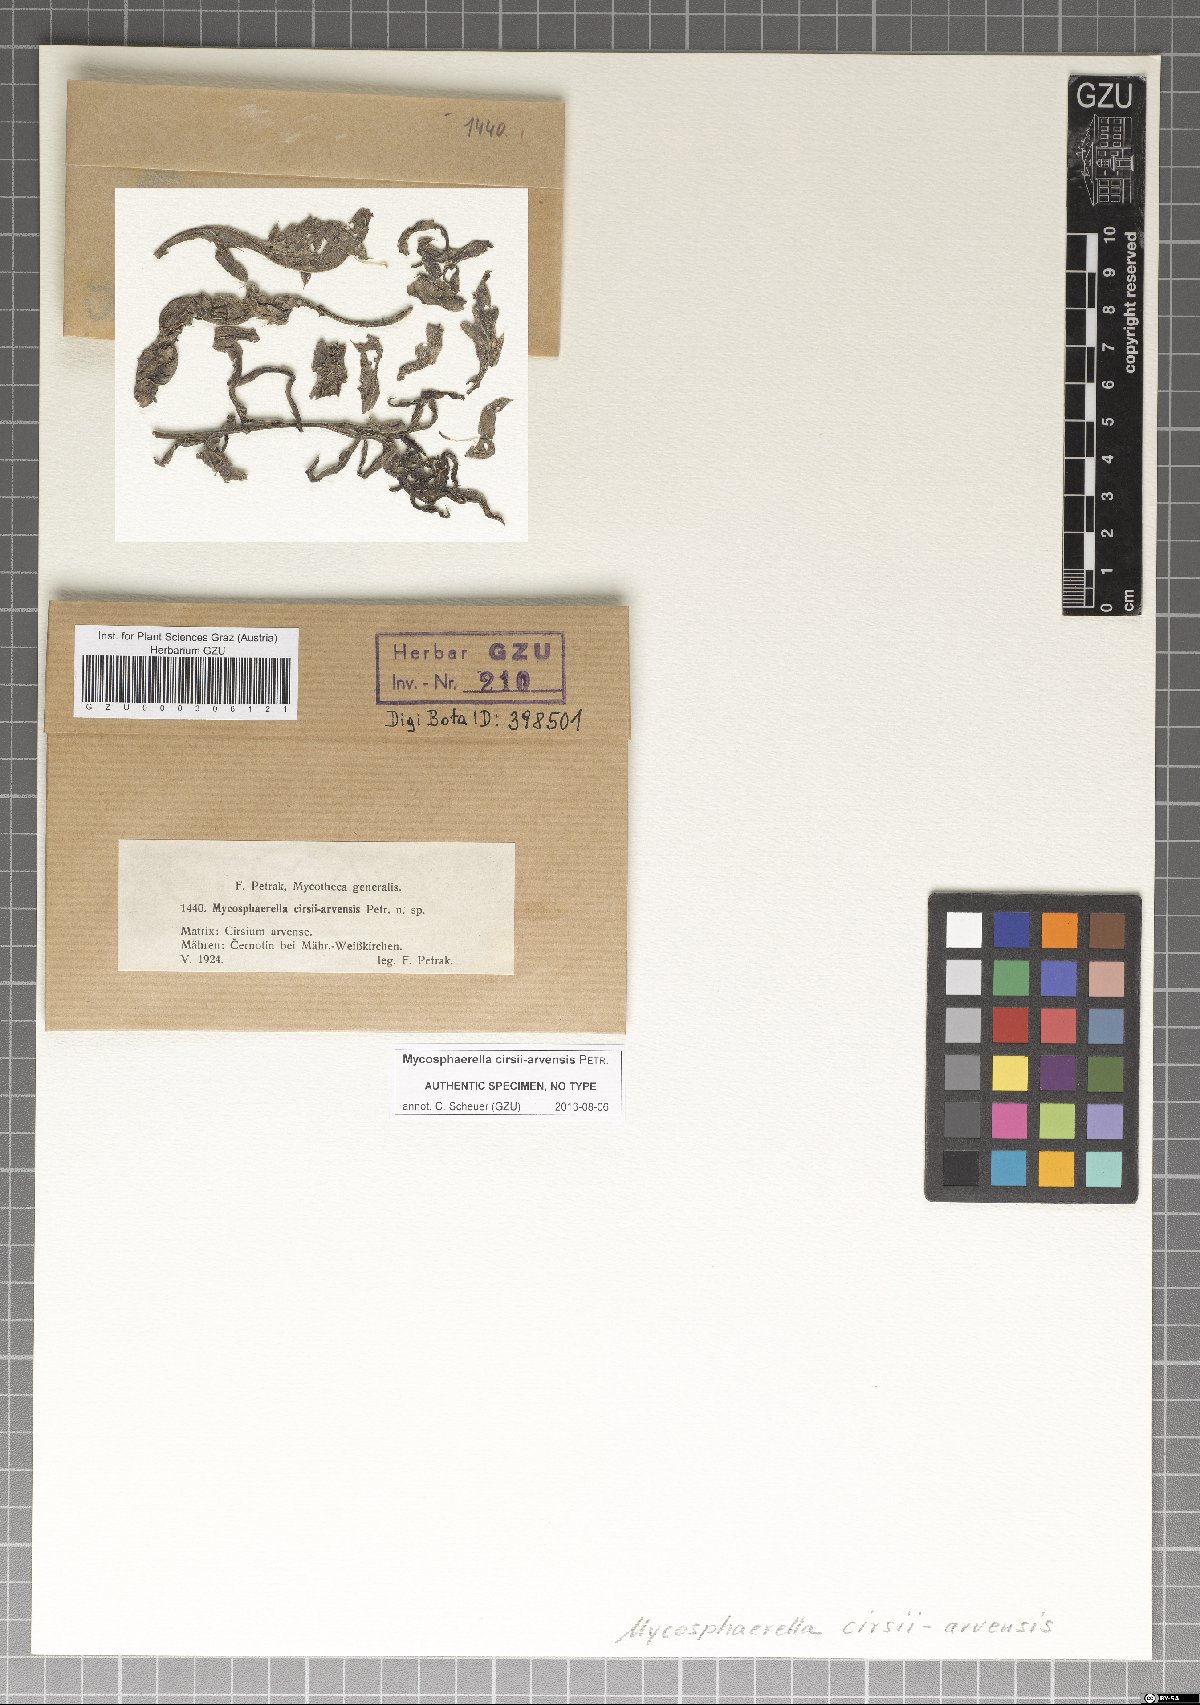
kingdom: Fungi
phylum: Ascomycota
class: Dothideomycetes
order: Mycosphaerellales
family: Mycosphaerellaceae
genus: Mycosphaerella
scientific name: Mycosphaerella cirsii-arvensis
